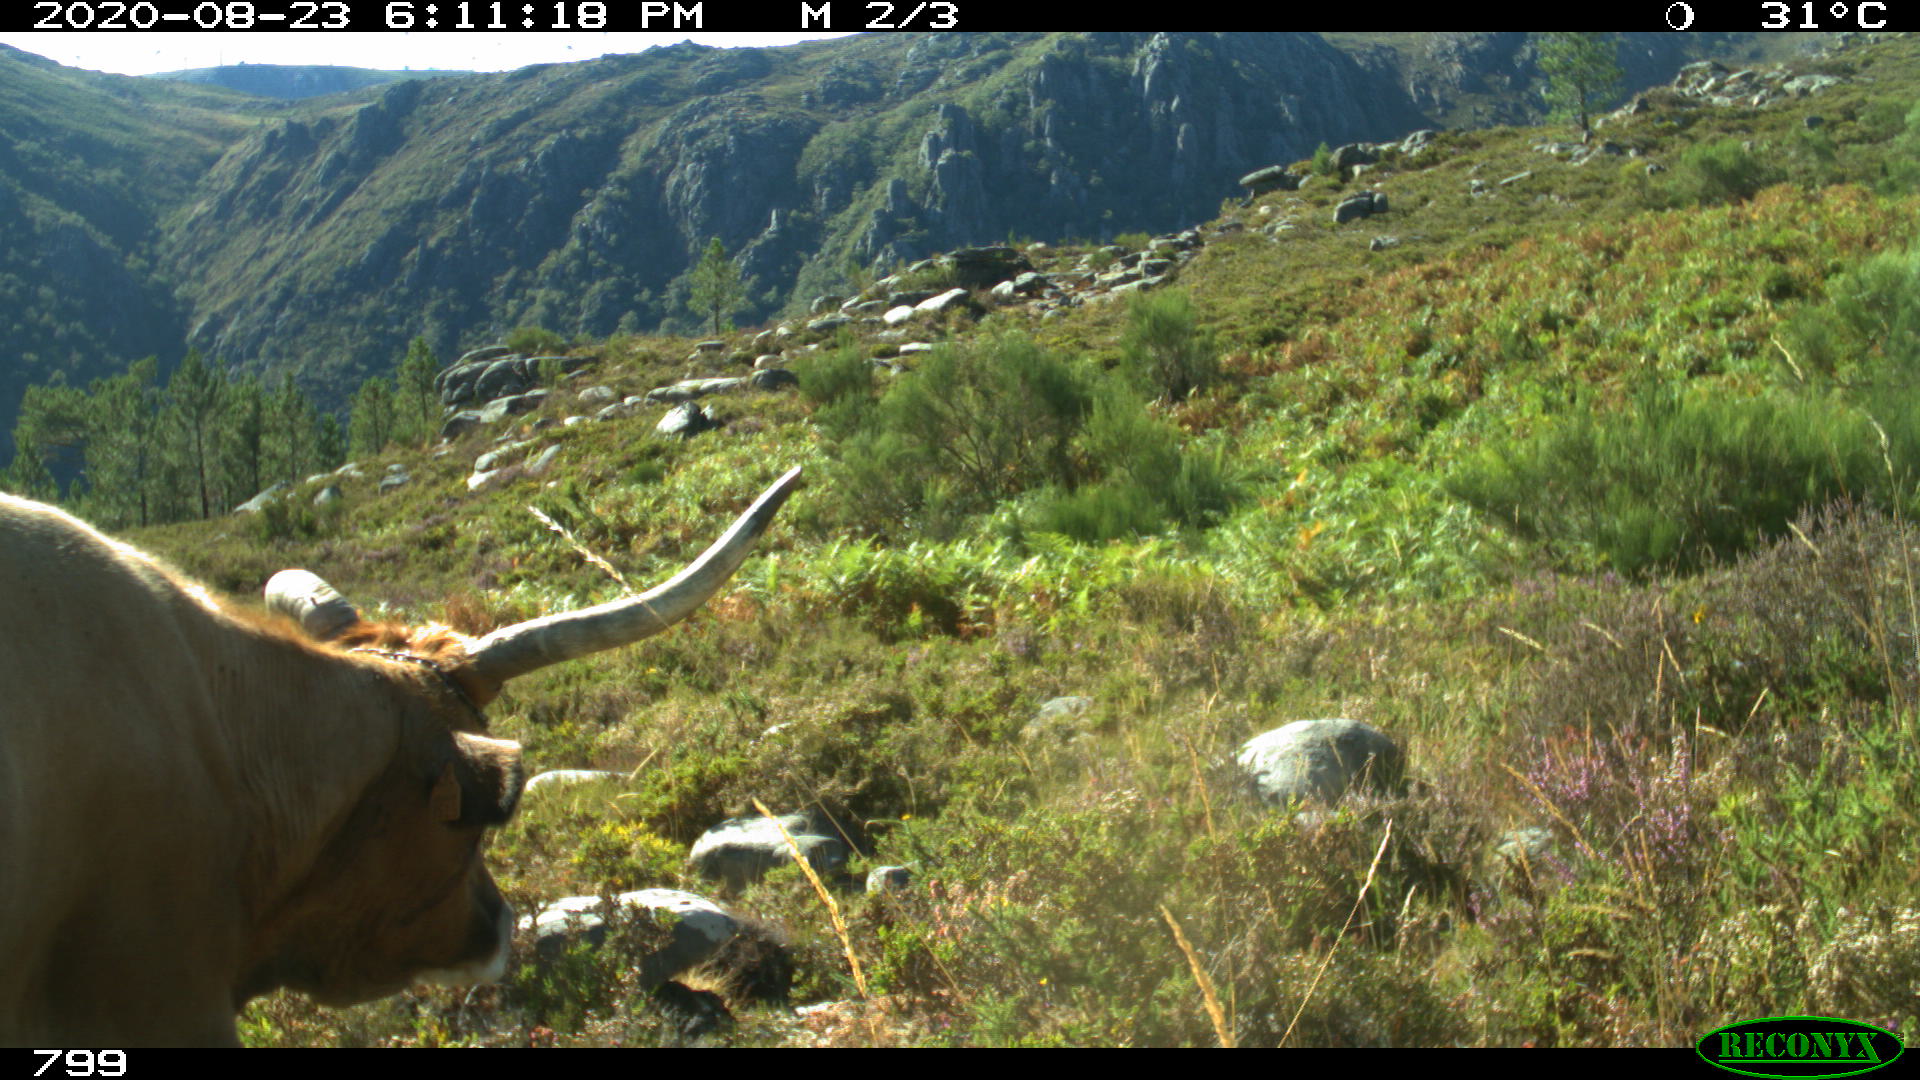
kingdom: Animalia
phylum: Chordata
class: Mammalia
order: Artiodactyla
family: Bovidae
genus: Bos
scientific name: Bos taurus
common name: Domesticated cattle
